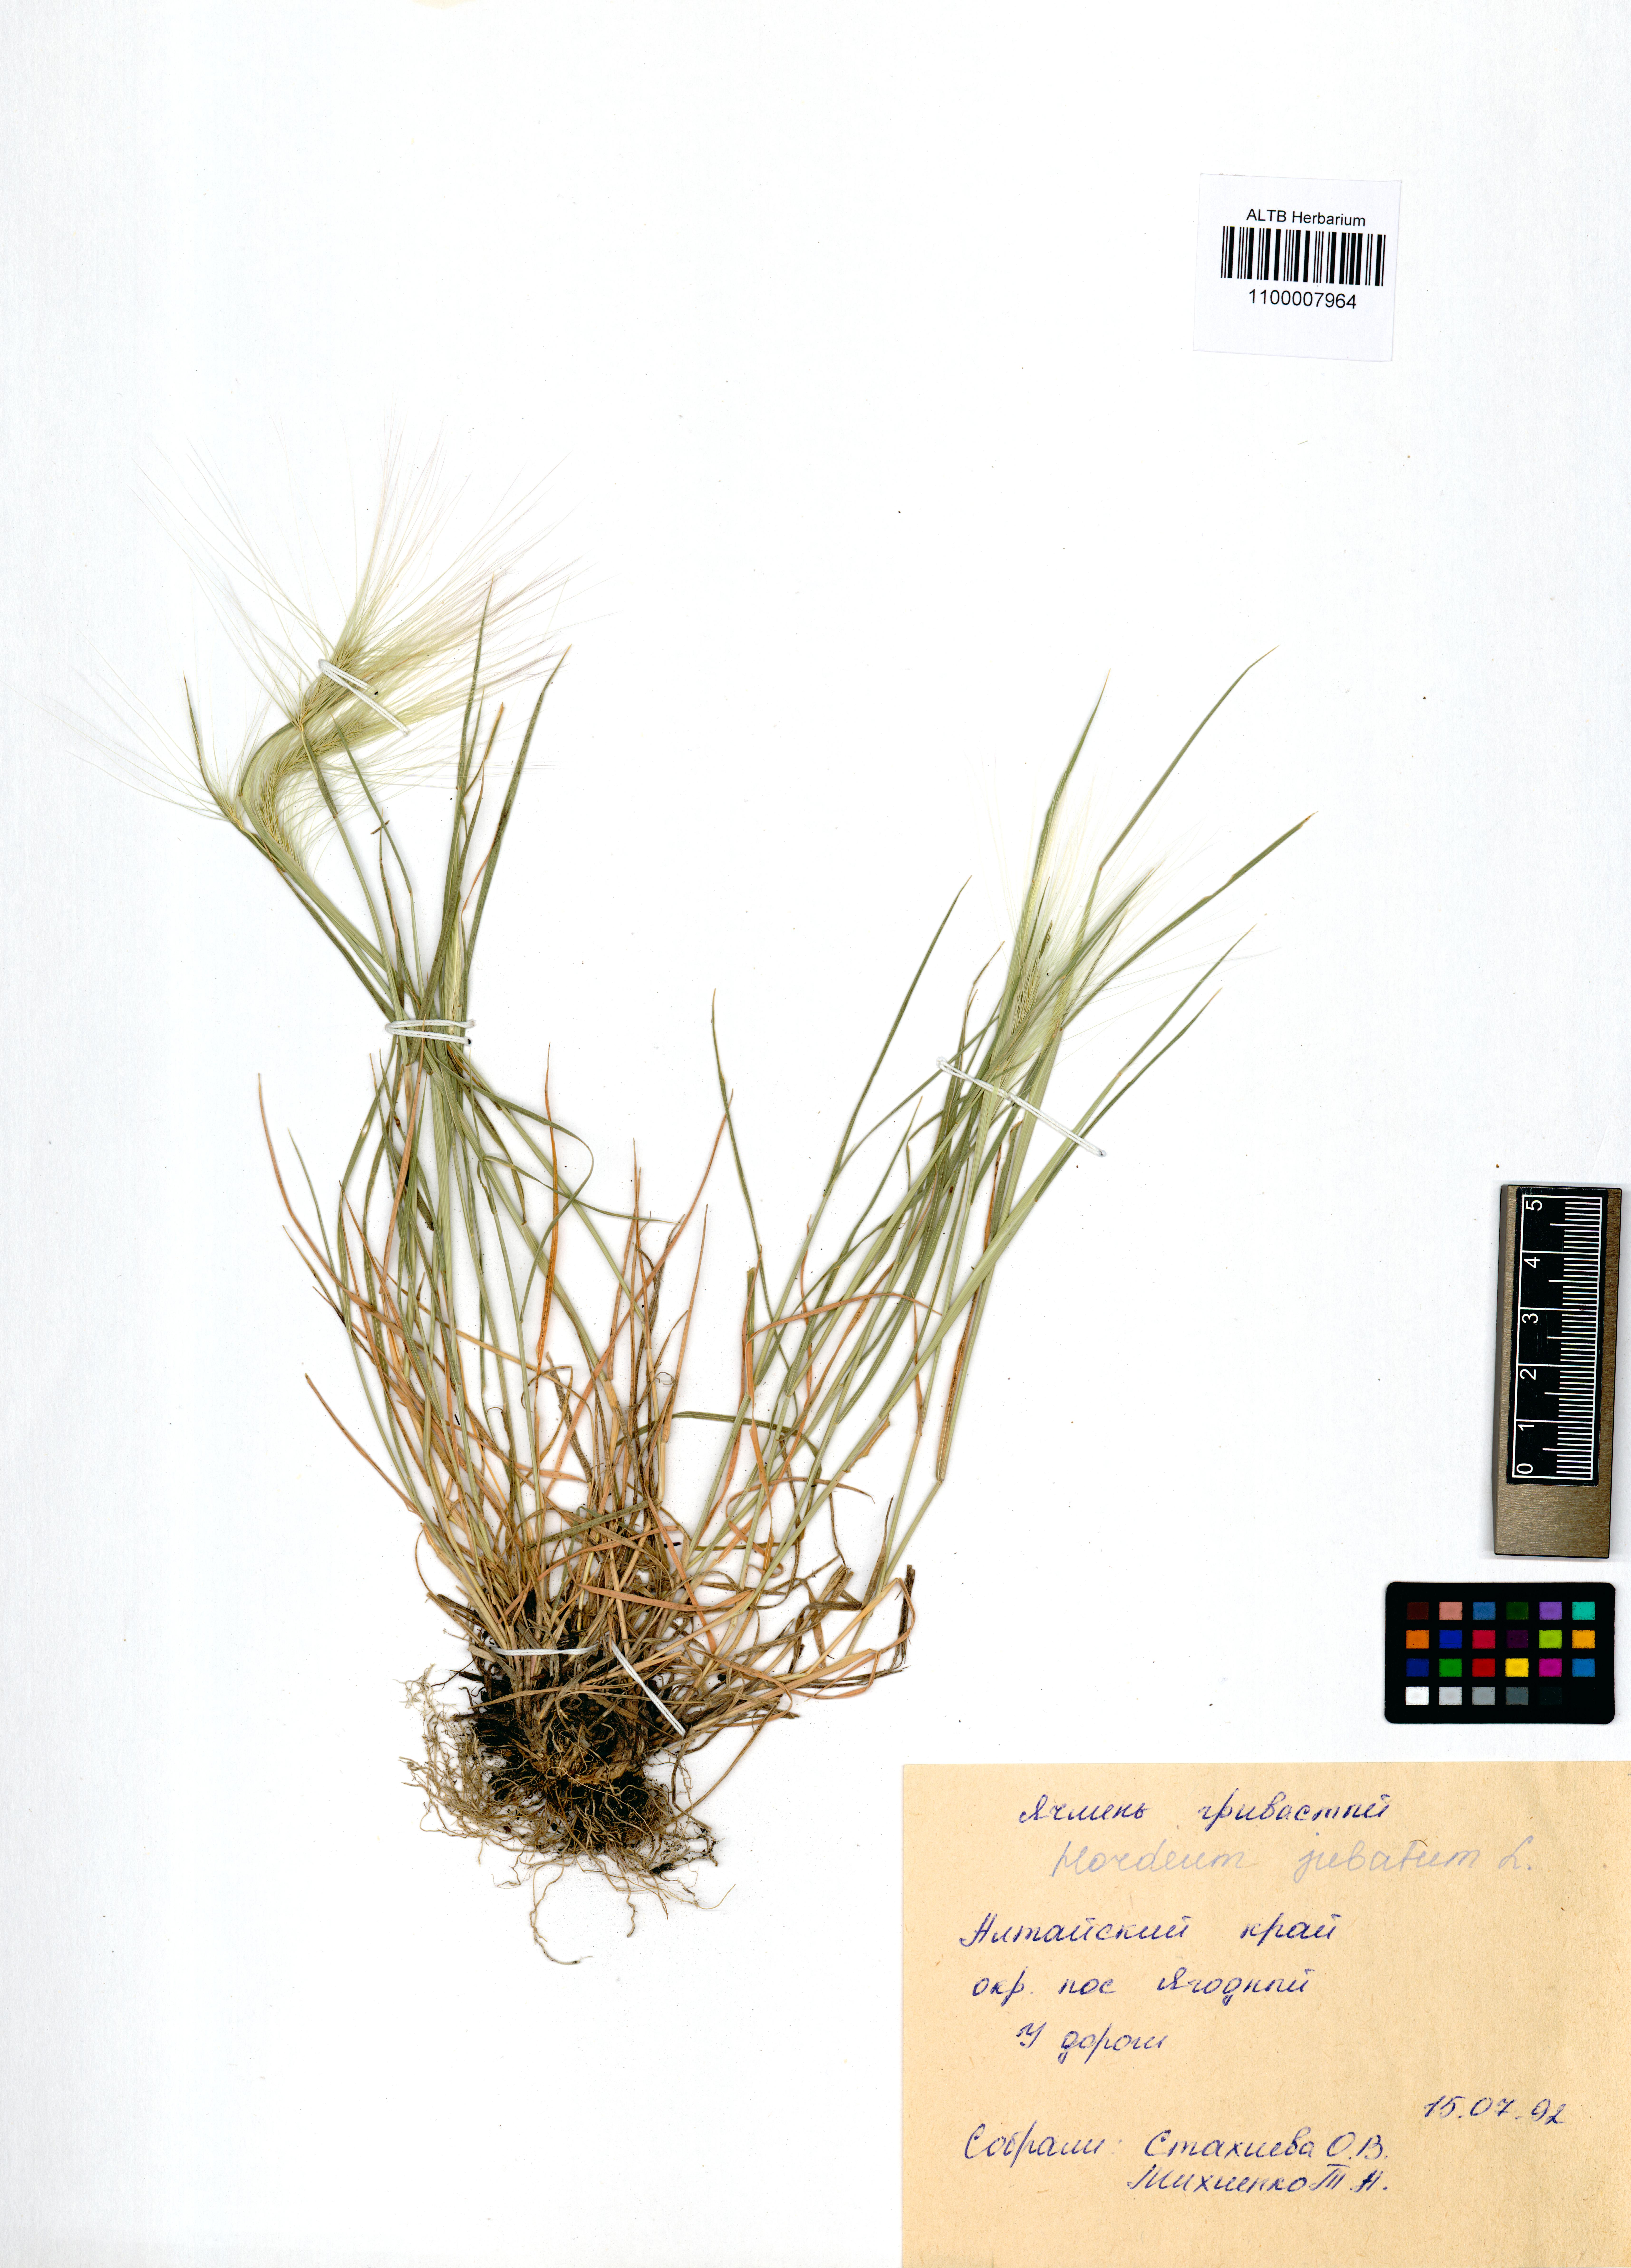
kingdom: Plantae
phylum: Tracheophyta
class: Liliopsida
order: Poales
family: Poaceae
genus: Hordeum
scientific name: Hordeum jubatum
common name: Foxtail barley
